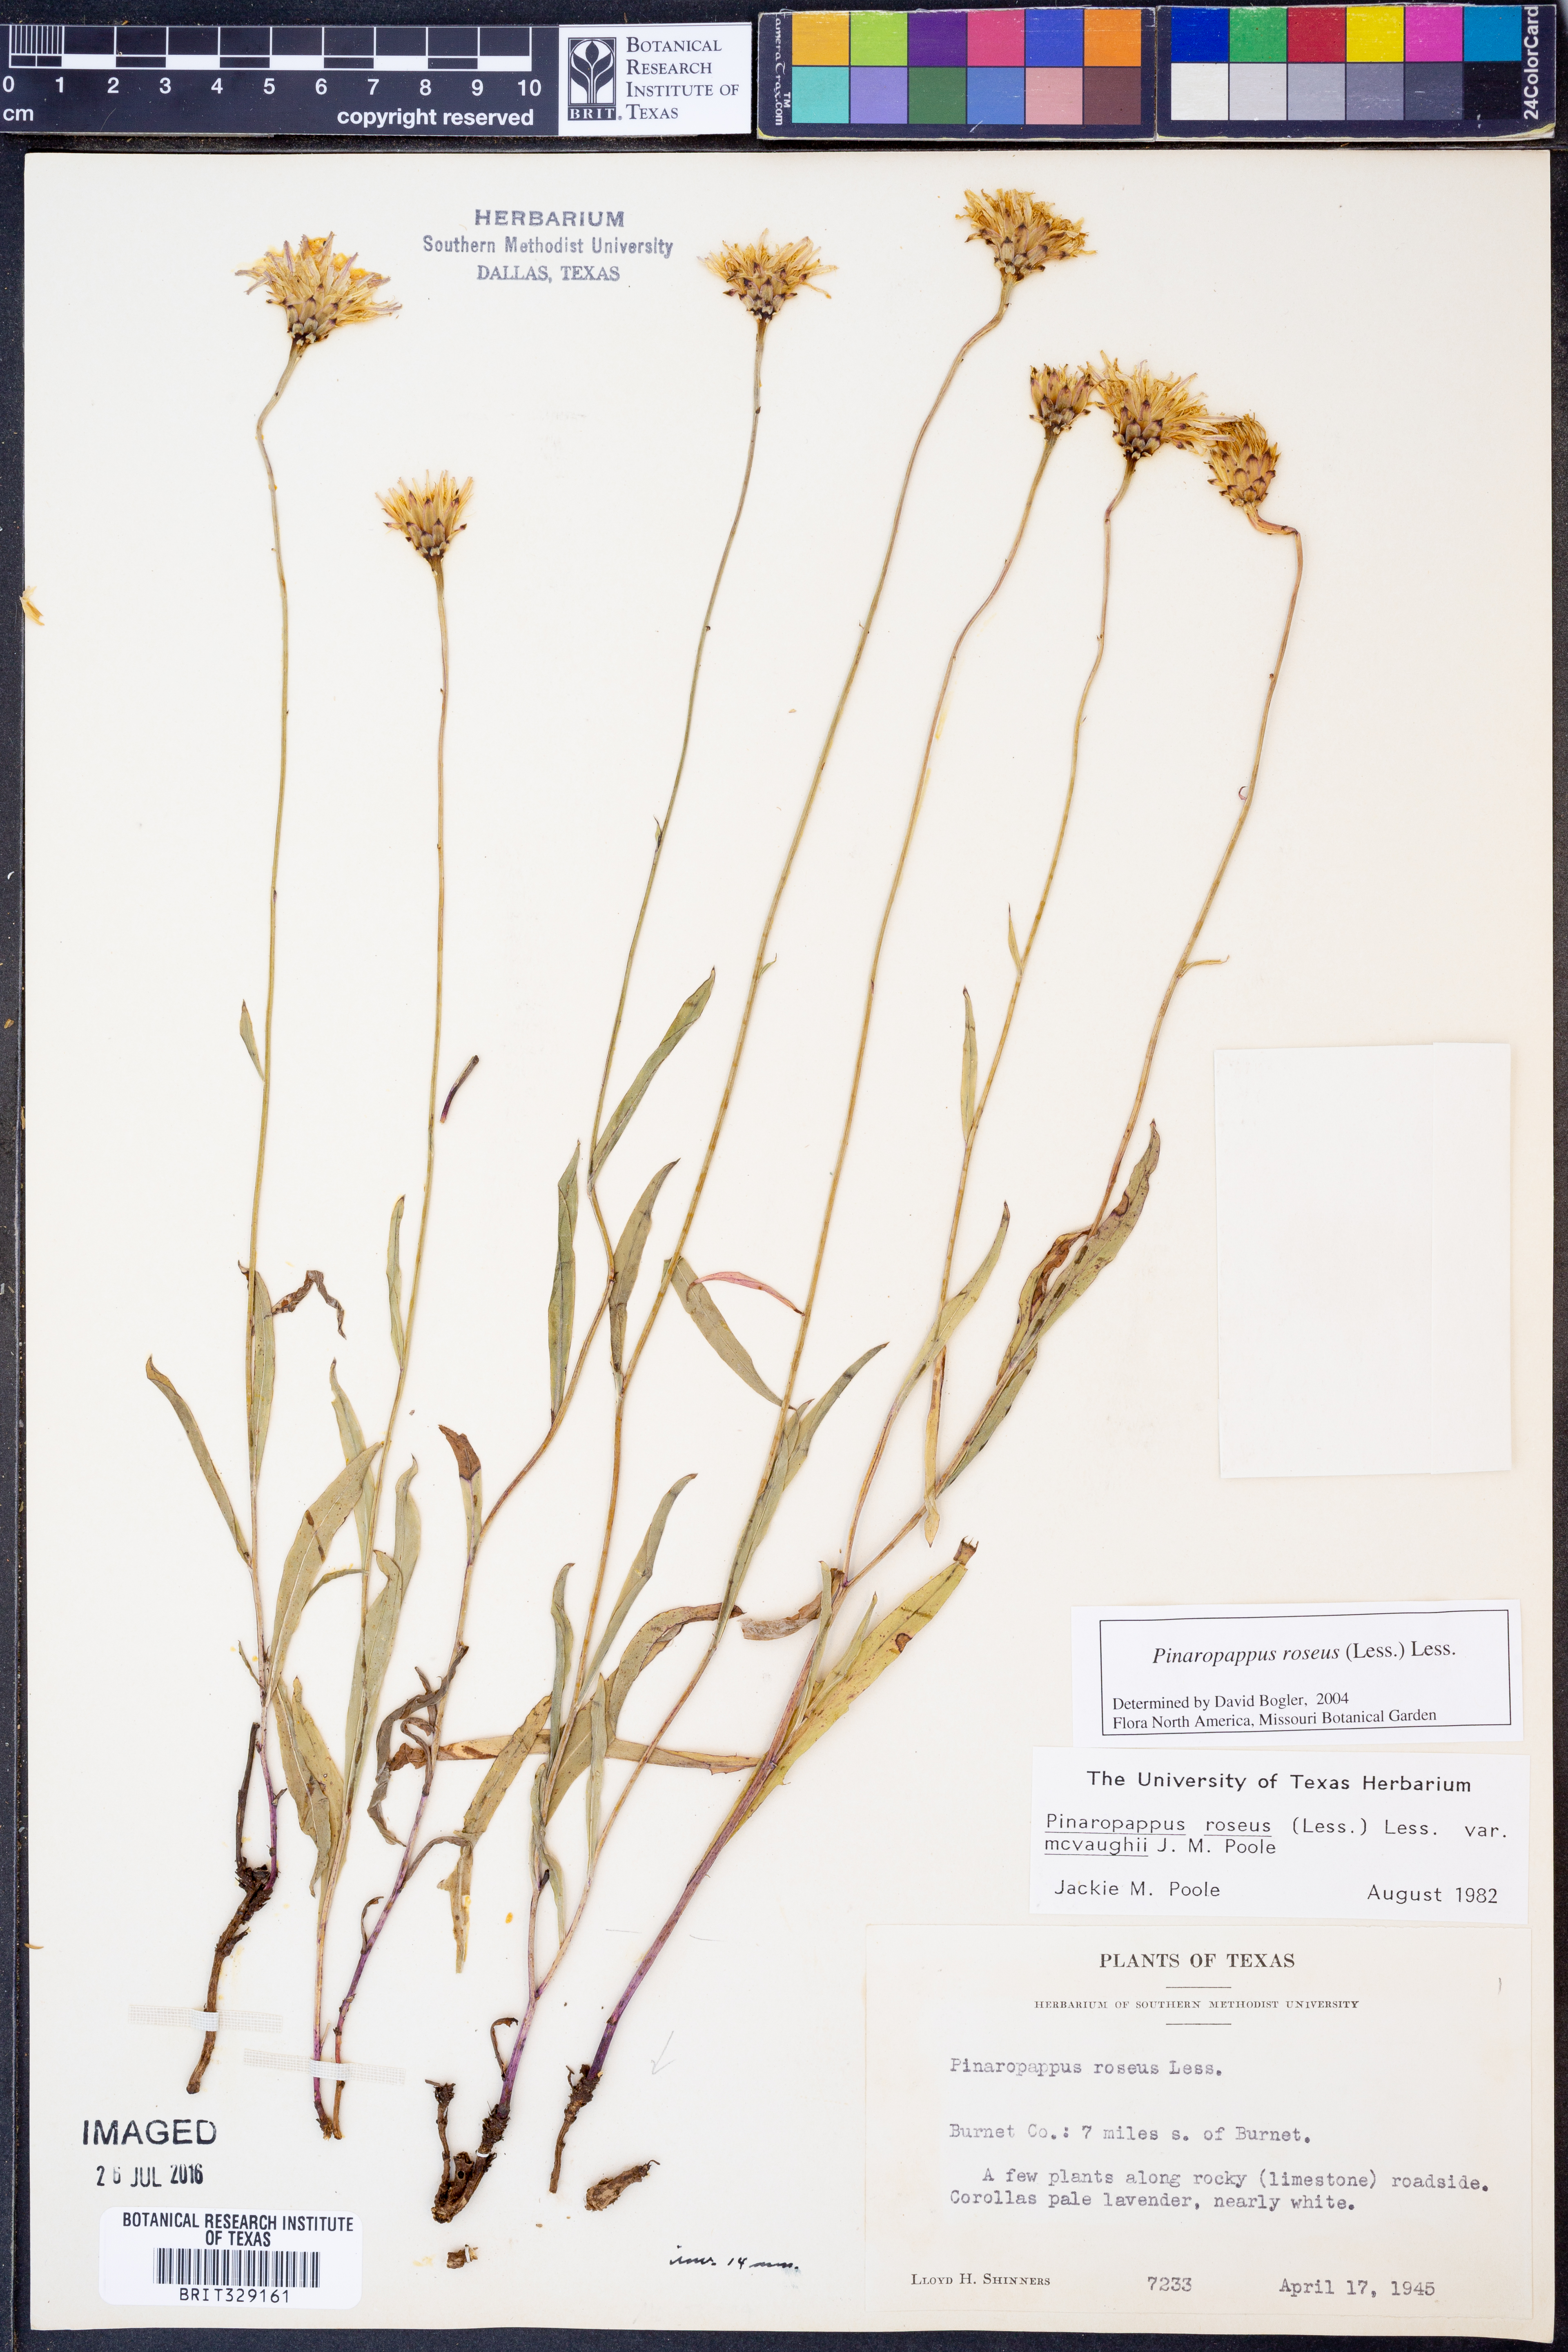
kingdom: Plantae
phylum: Tracheophyta
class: Magnoliopsida
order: Asterales
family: Asteraceae
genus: Pinaropappus
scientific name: Pinaropappus roseus
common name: Rock-lettuce
